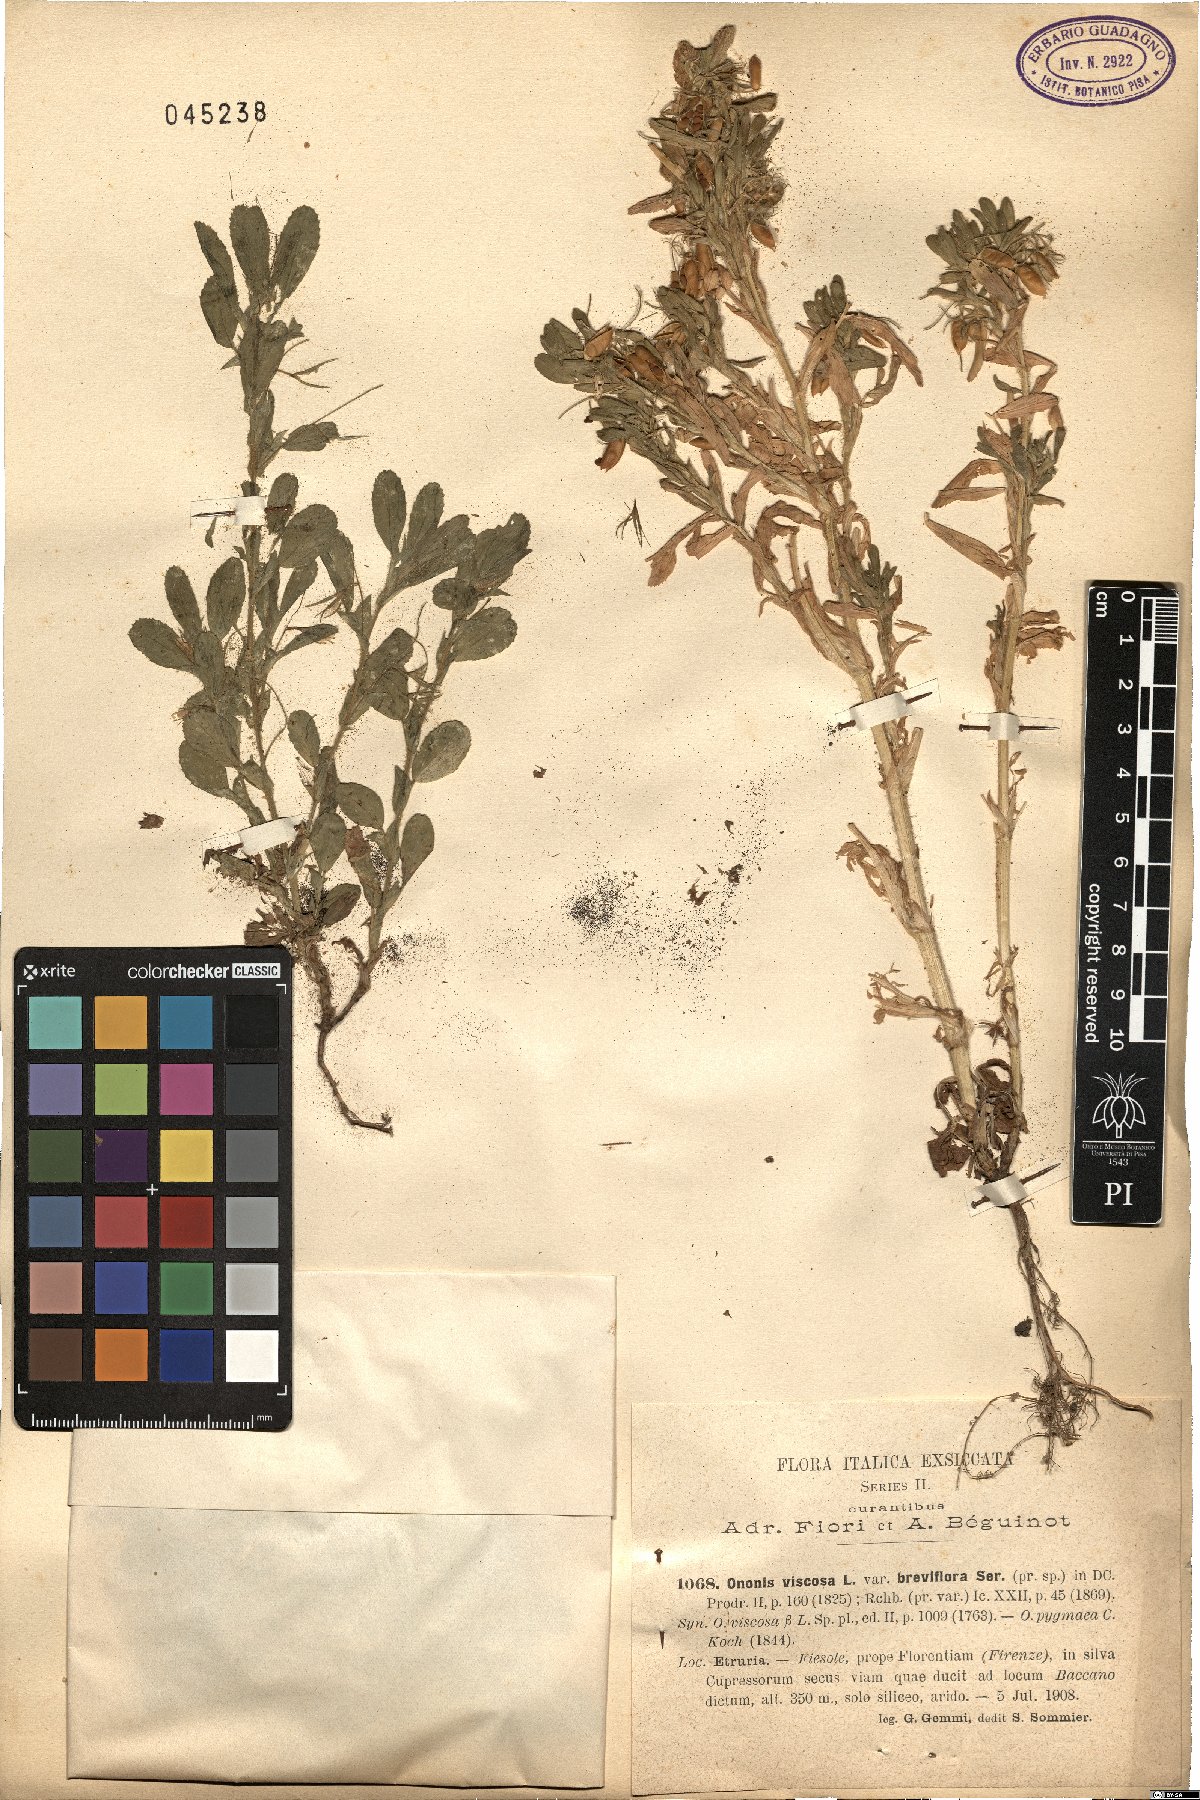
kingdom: Plantae
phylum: Tracheophyta
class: Magnoliopsida
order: Fabales
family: Fabaceae
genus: Ononis
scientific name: Ononis viscosa
